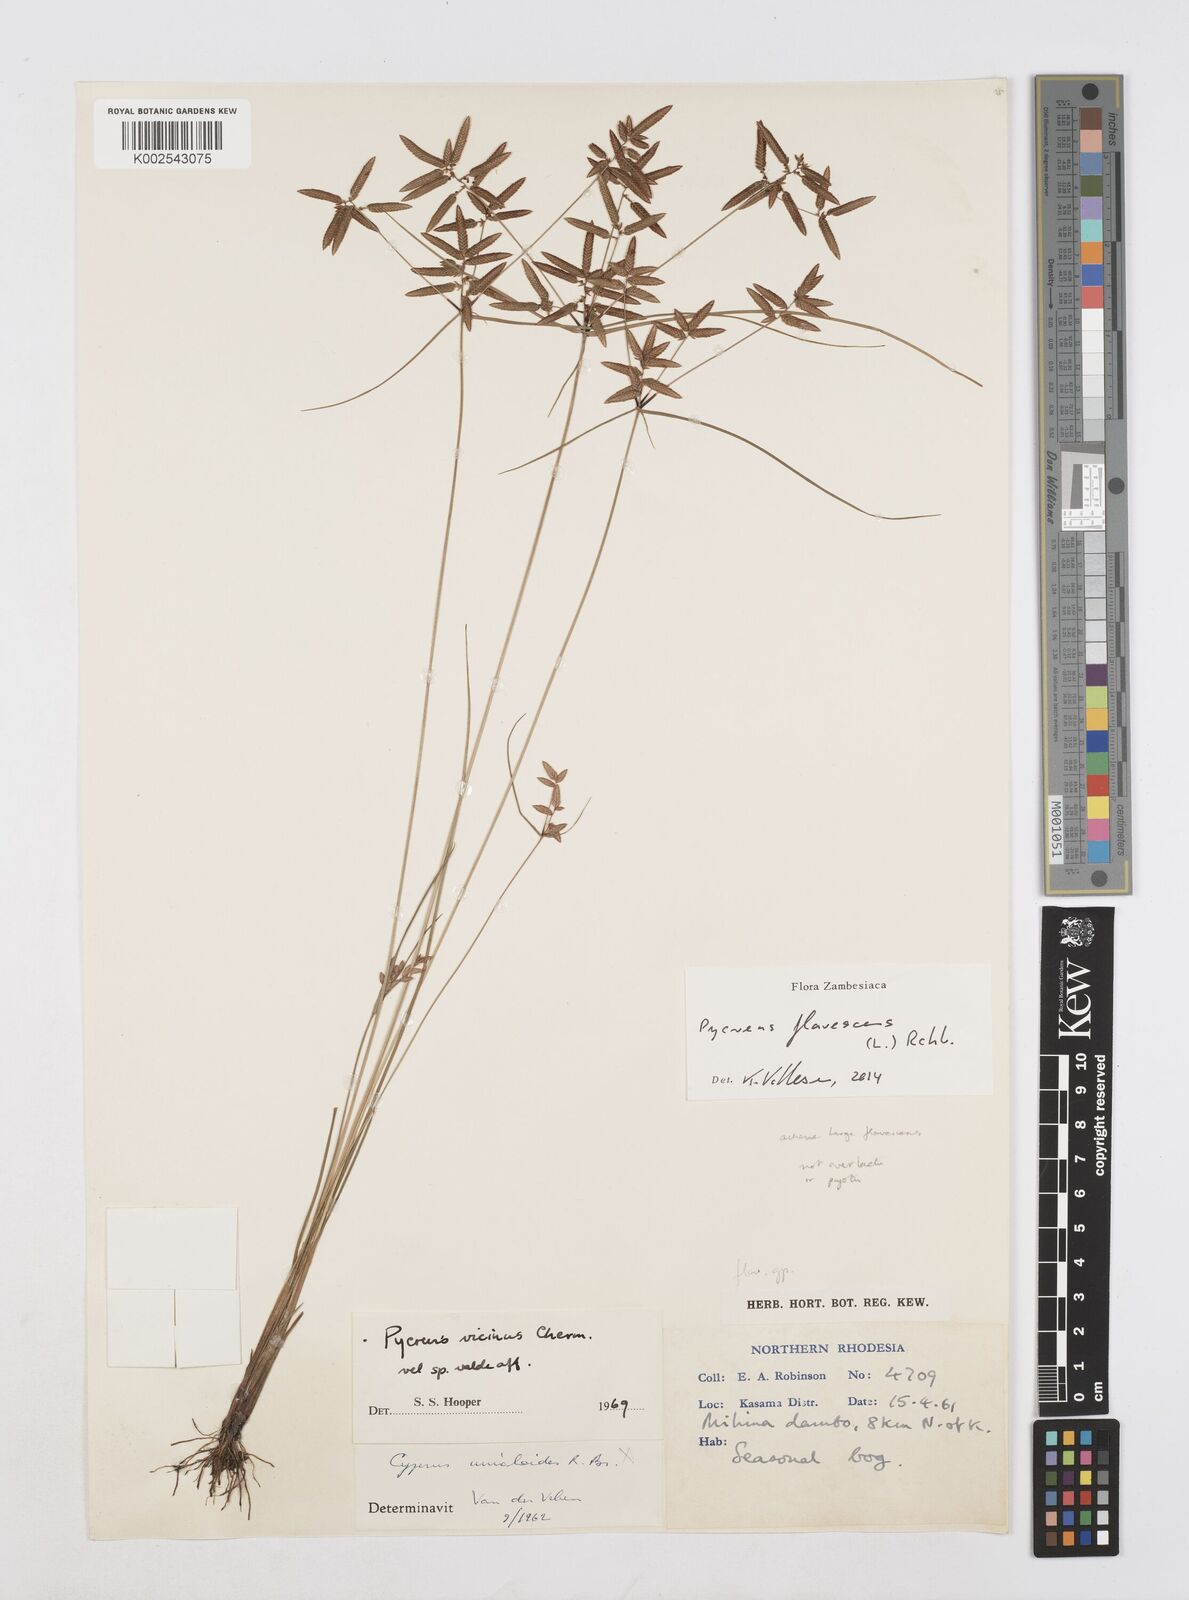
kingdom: Plantae
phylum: Tracheophyta
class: Liliopsida
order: Poales
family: Cyperaceae
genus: Cyperus
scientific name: Cyperus flavescens
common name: Yellow galingale
